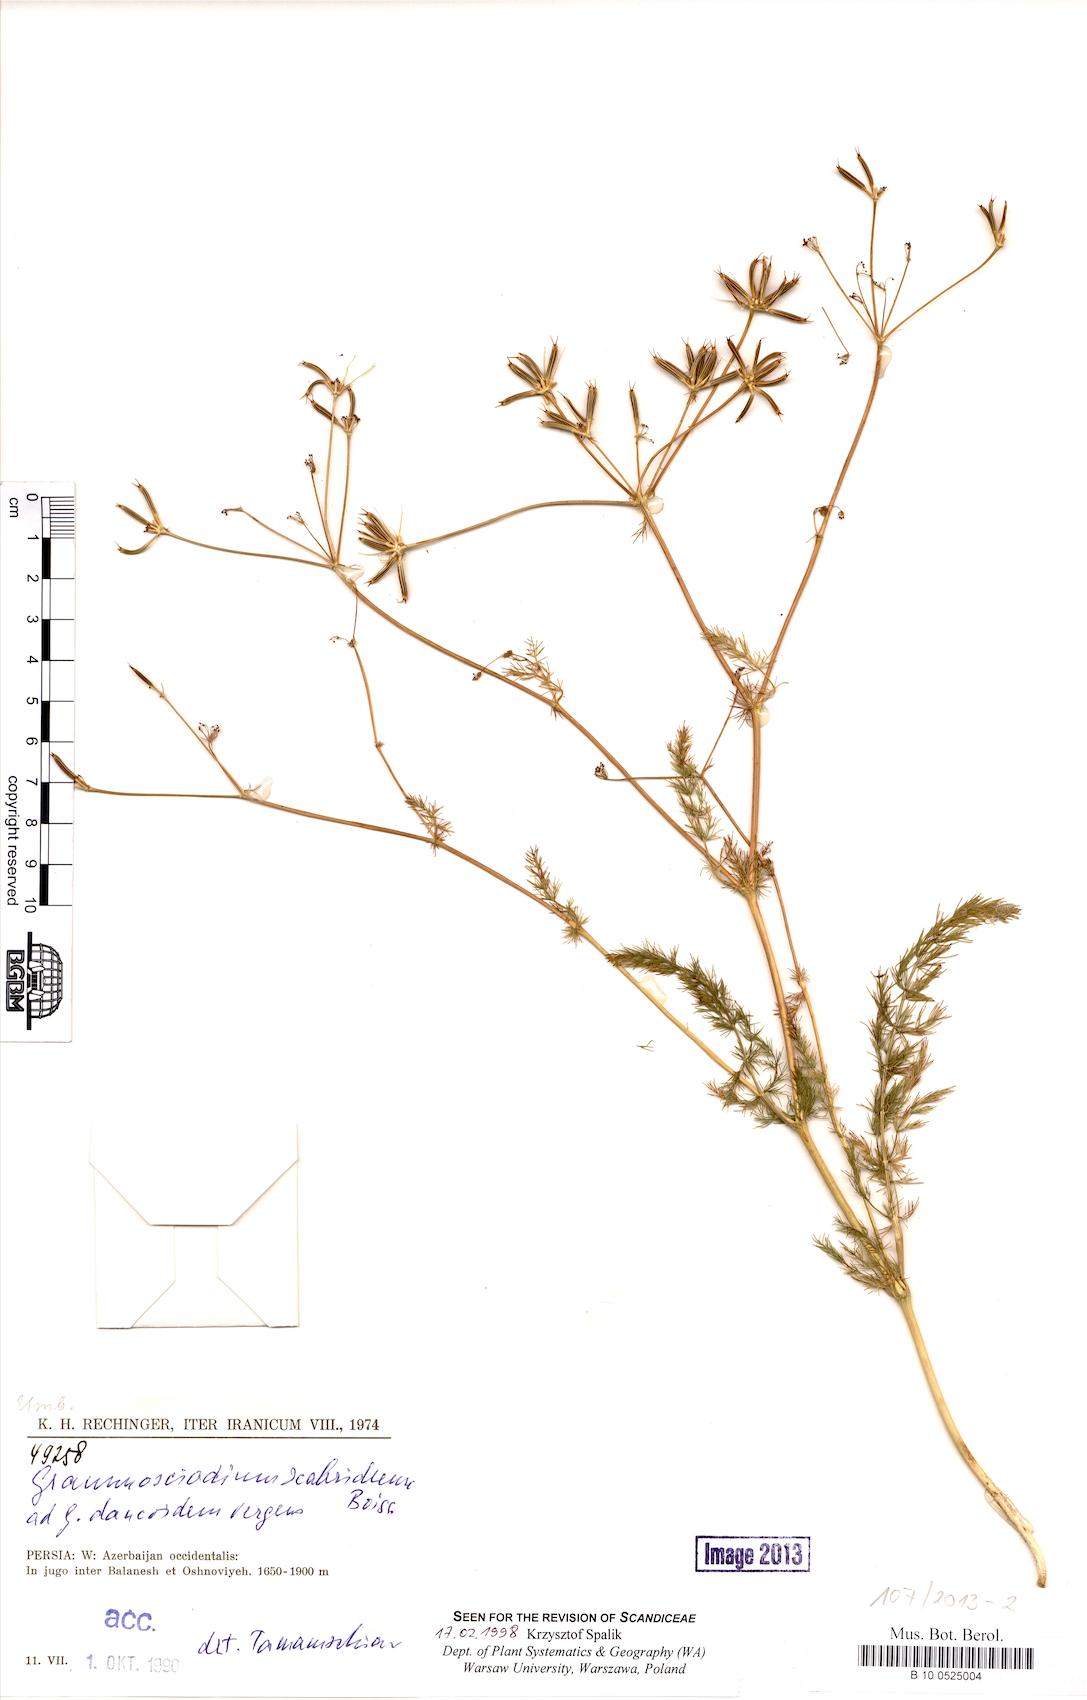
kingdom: Plantae
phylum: Tracheophyta
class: Magnoliopsida
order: Apiales
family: Apiaceae
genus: Grammosciadium
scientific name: Grammosciadium scabridum
